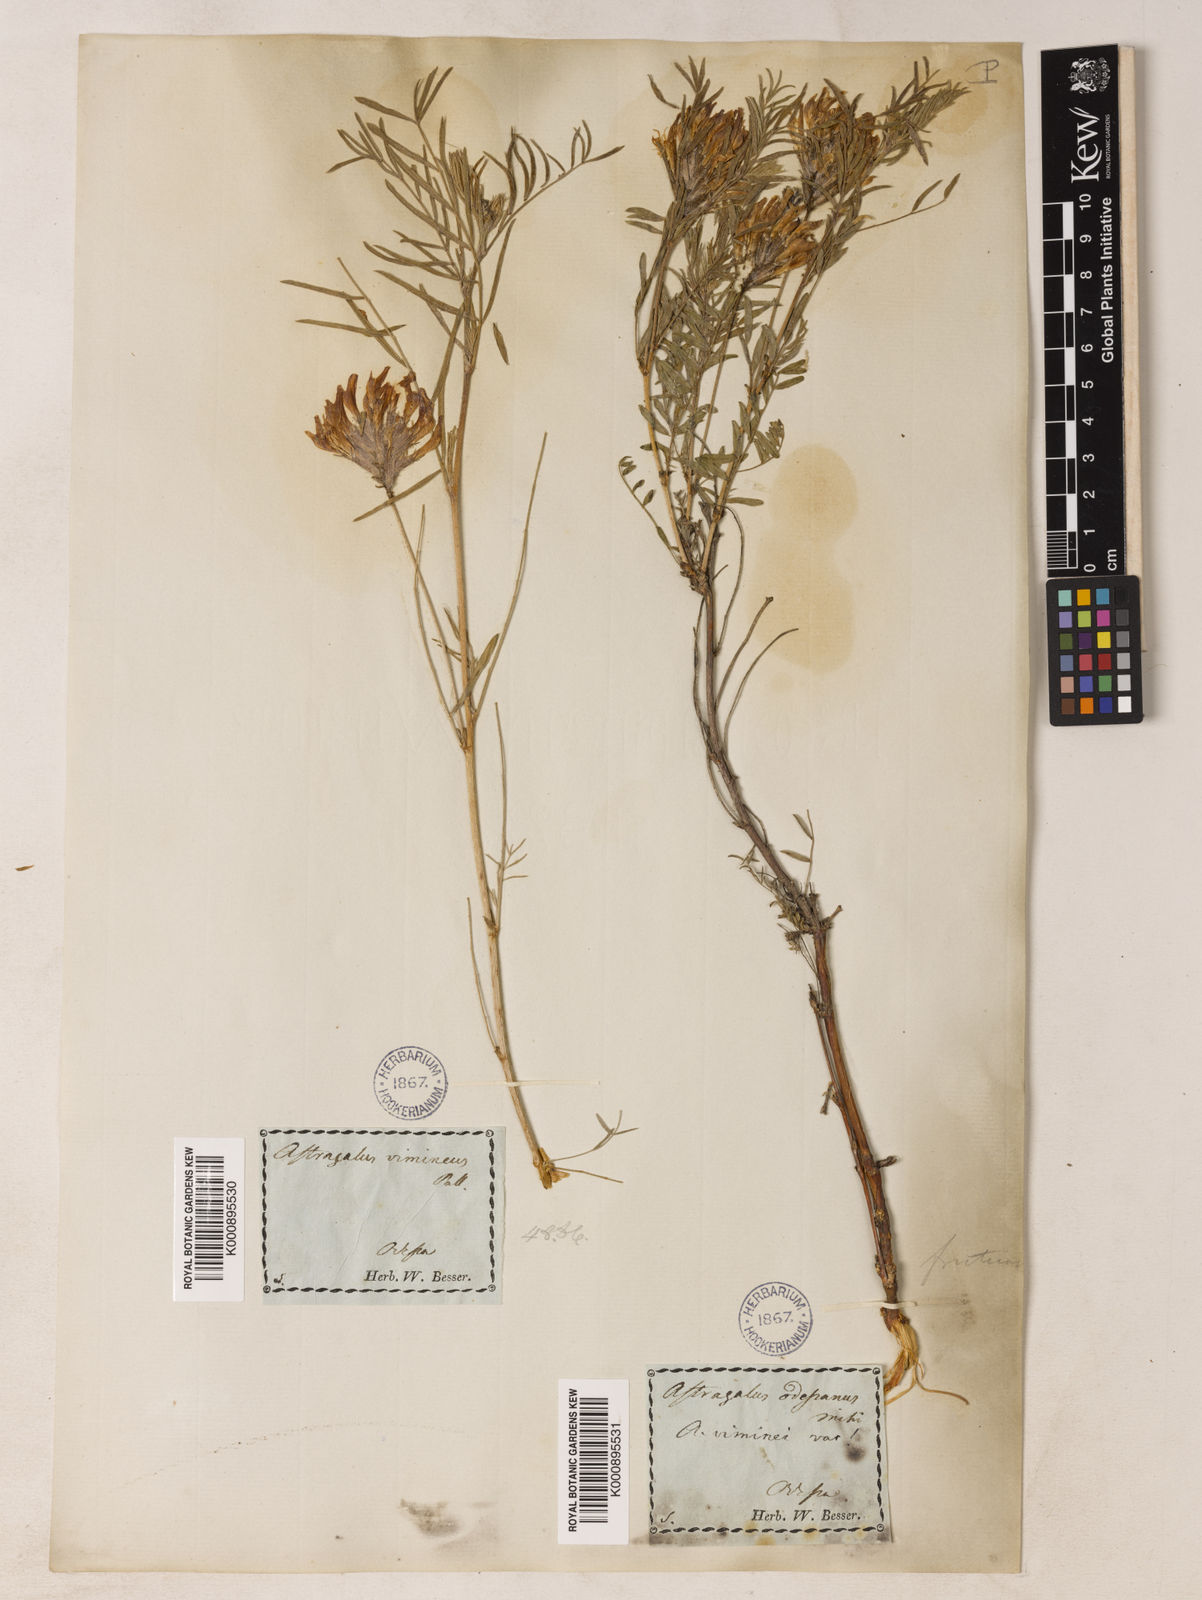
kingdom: Plantae
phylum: Tracheophyta
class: Magnoliopsida
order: Fabales
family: Fabaceae
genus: Astragalus
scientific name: Astragalus cornutus
